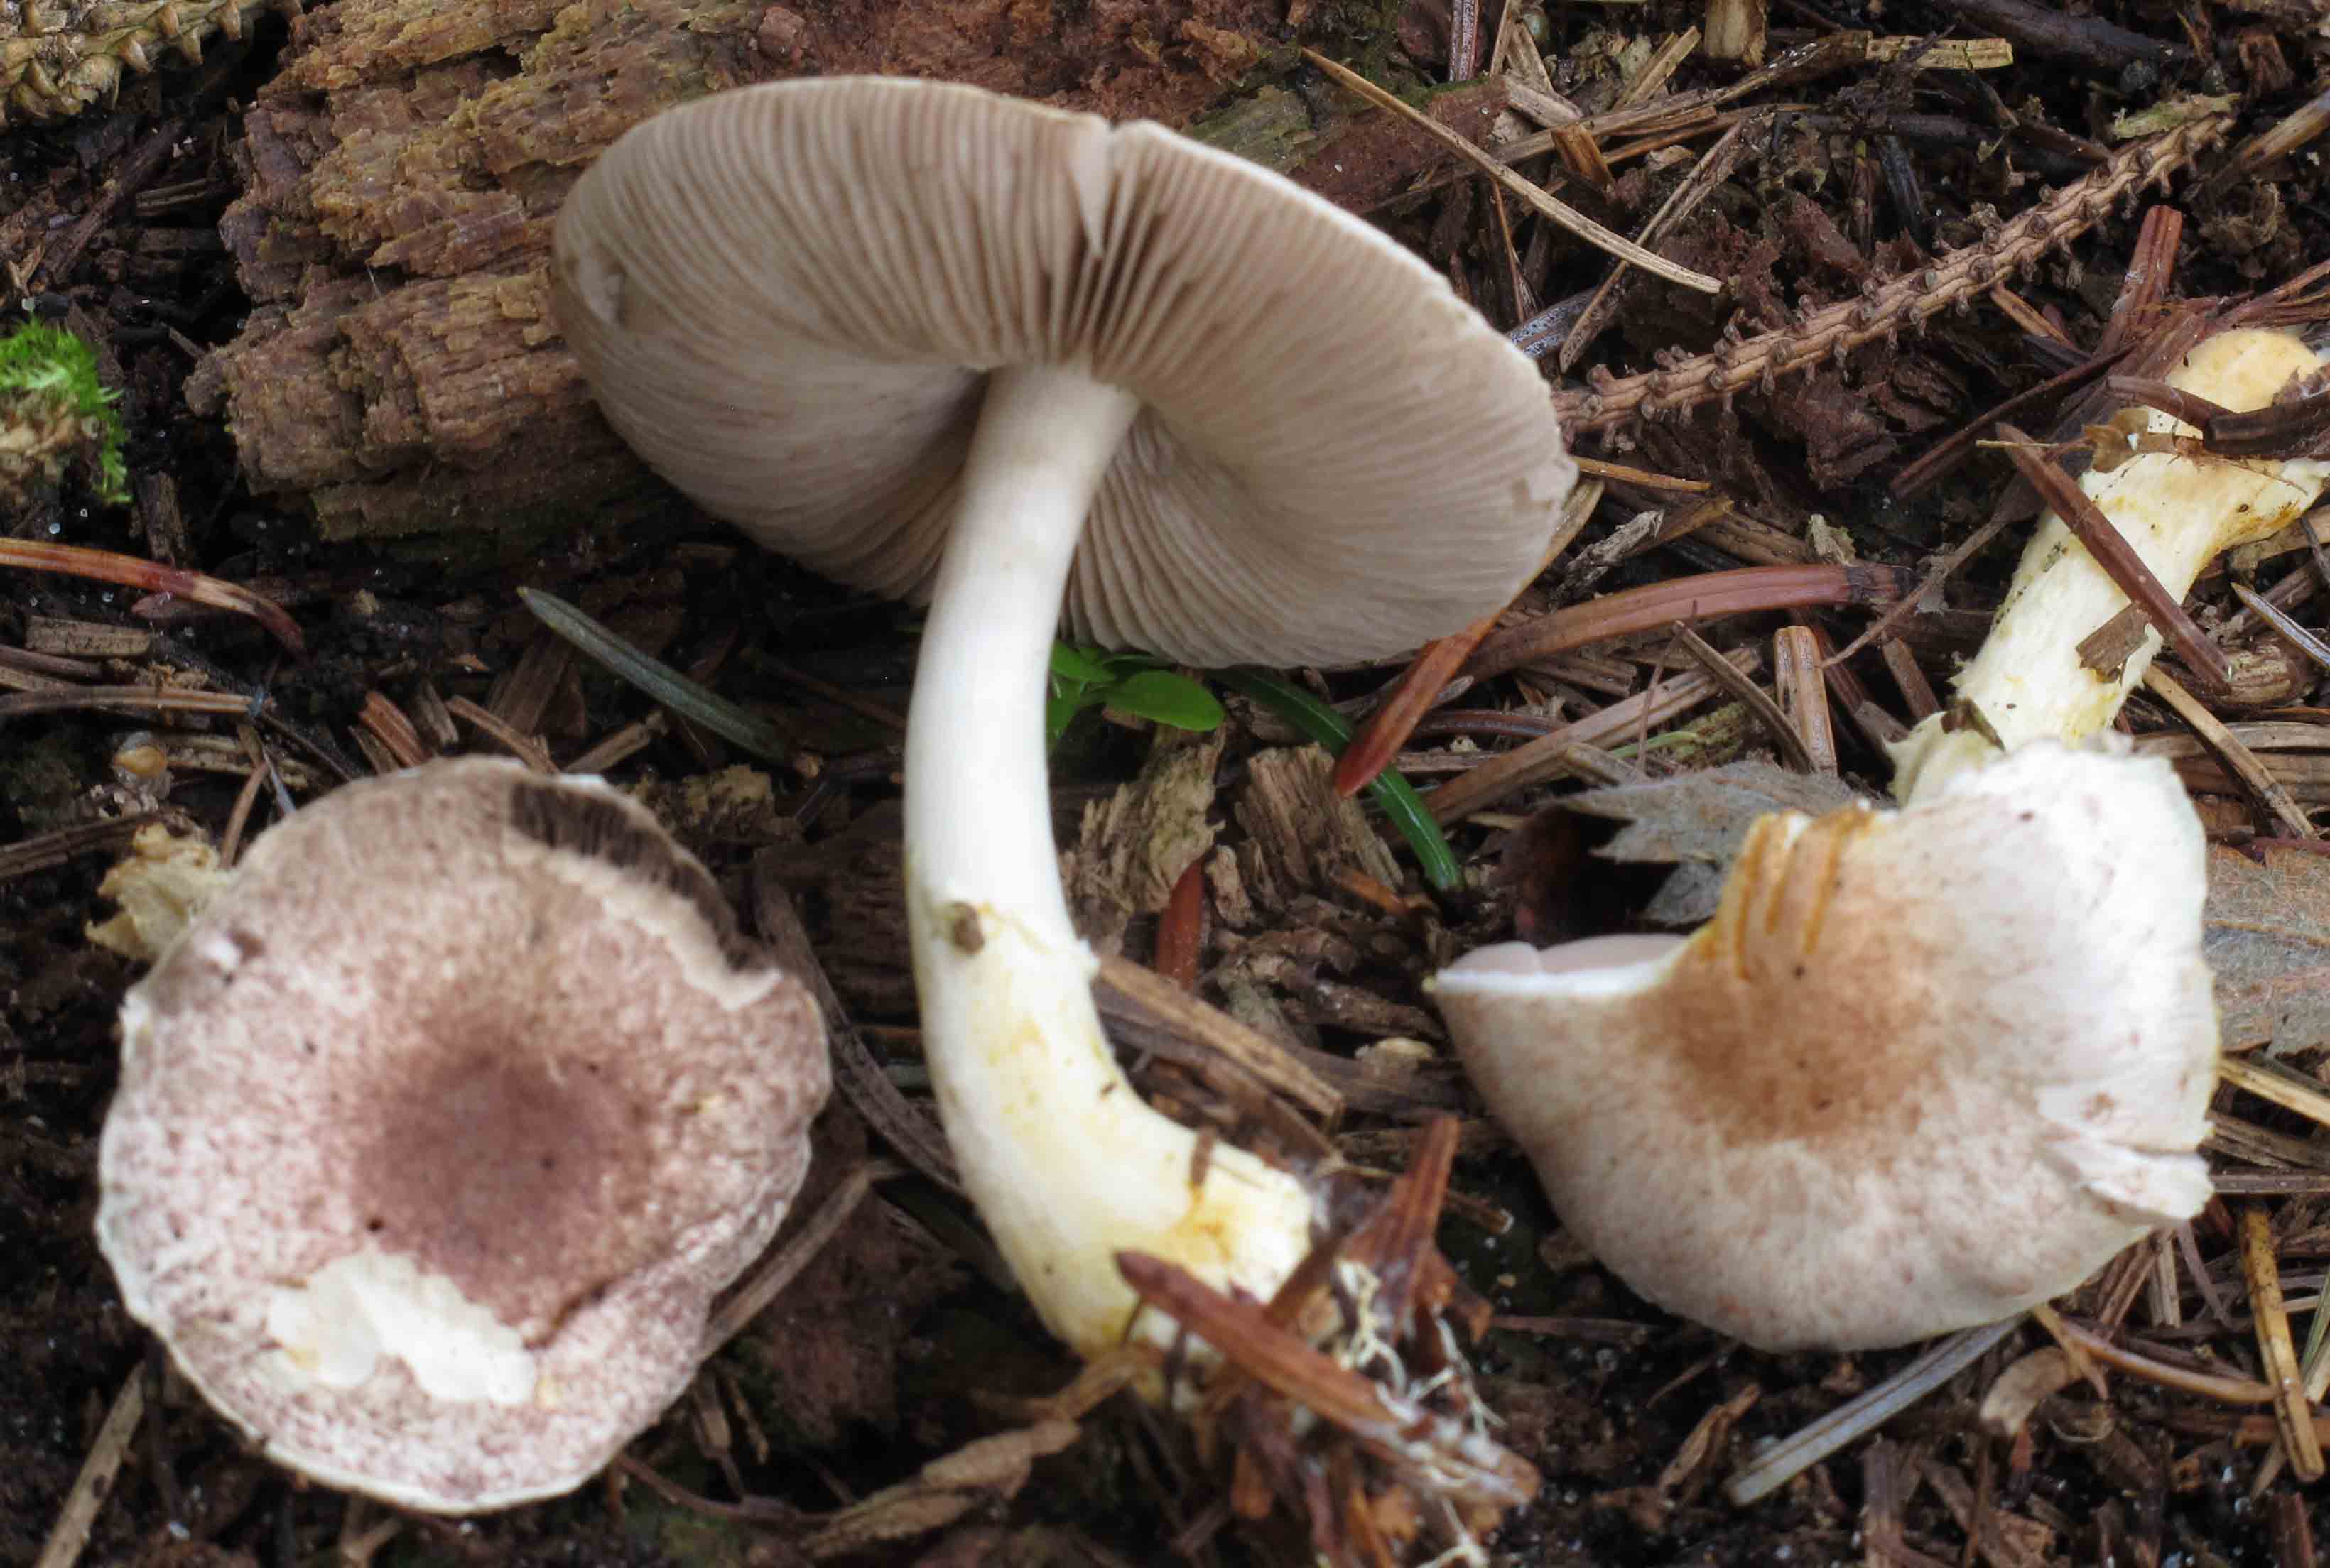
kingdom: Fungi
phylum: Basidiomycota
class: Agaricomycetes
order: Agaricales
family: Agaricaceae
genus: Agaricus
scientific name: Agaricus brunneolus
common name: purpur-champignon
